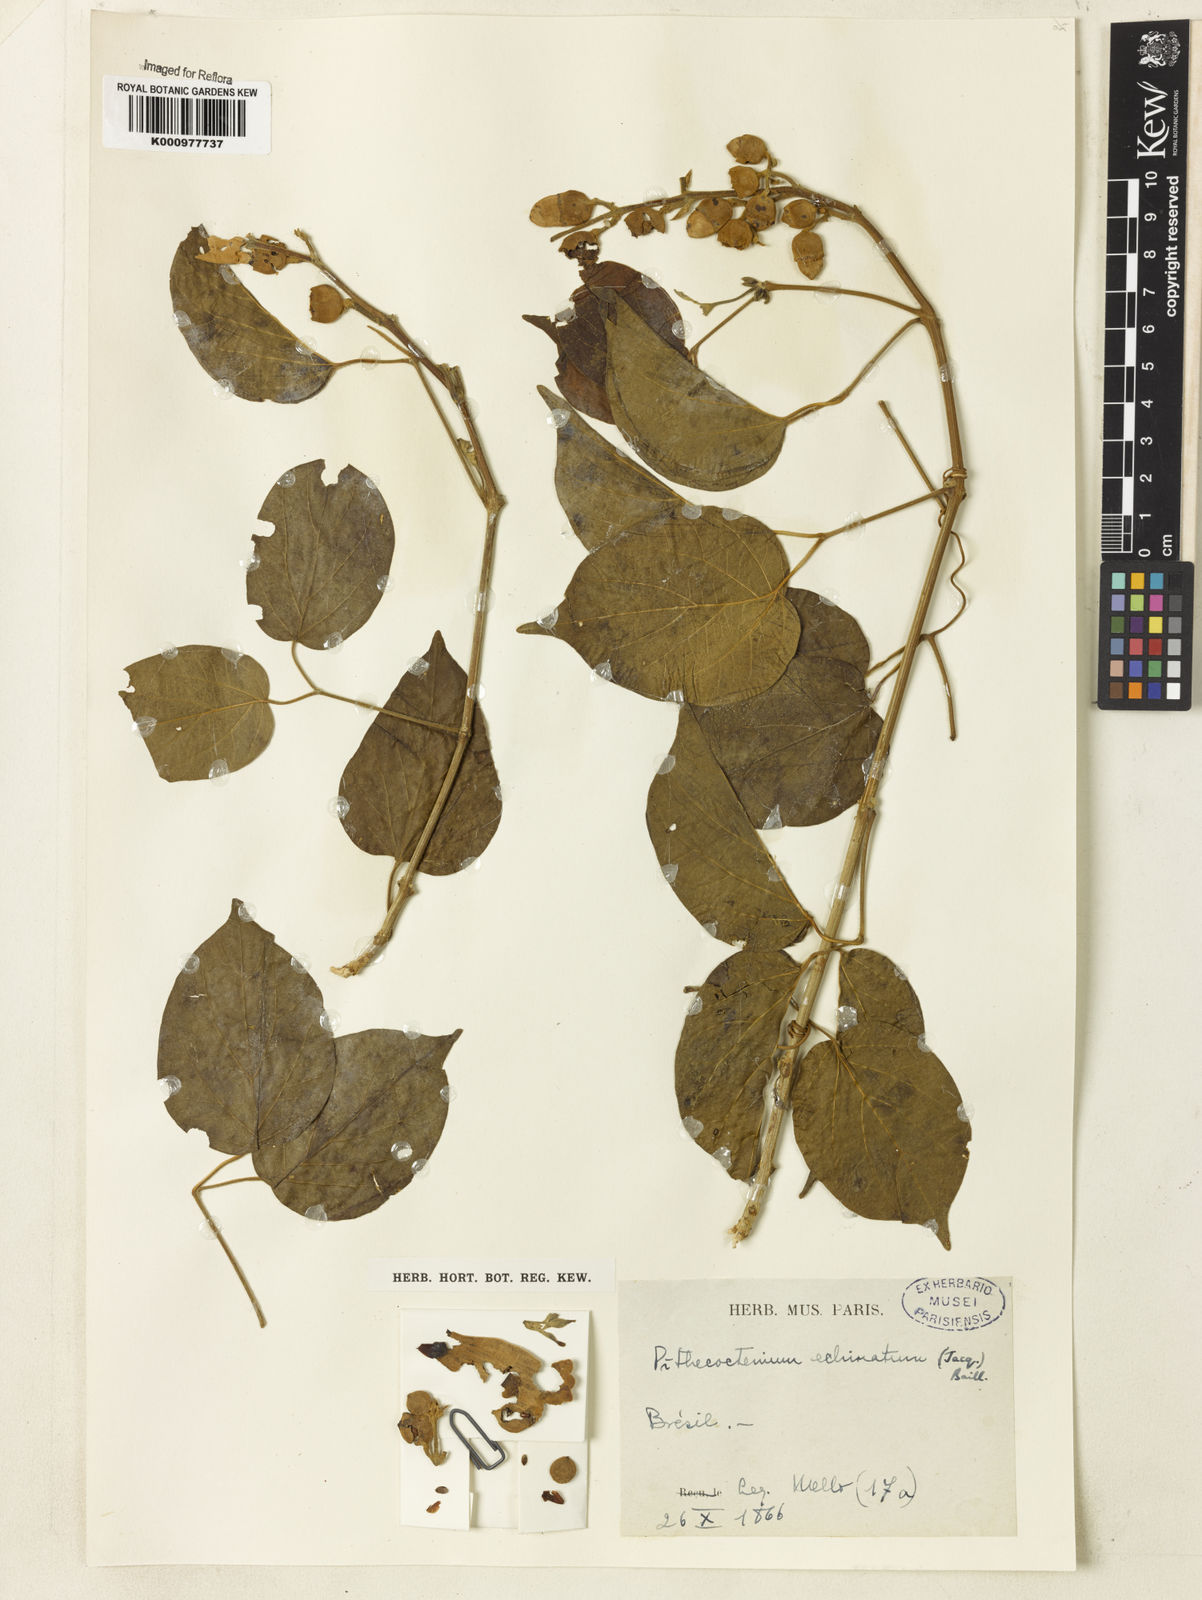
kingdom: Plantae
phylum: Tracheophyta
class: Magnoliopsida
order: Lamiales
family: Bignoniaceae
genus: Amphilophium
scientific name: Amphilophium crucigerum
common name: Monkey comb
